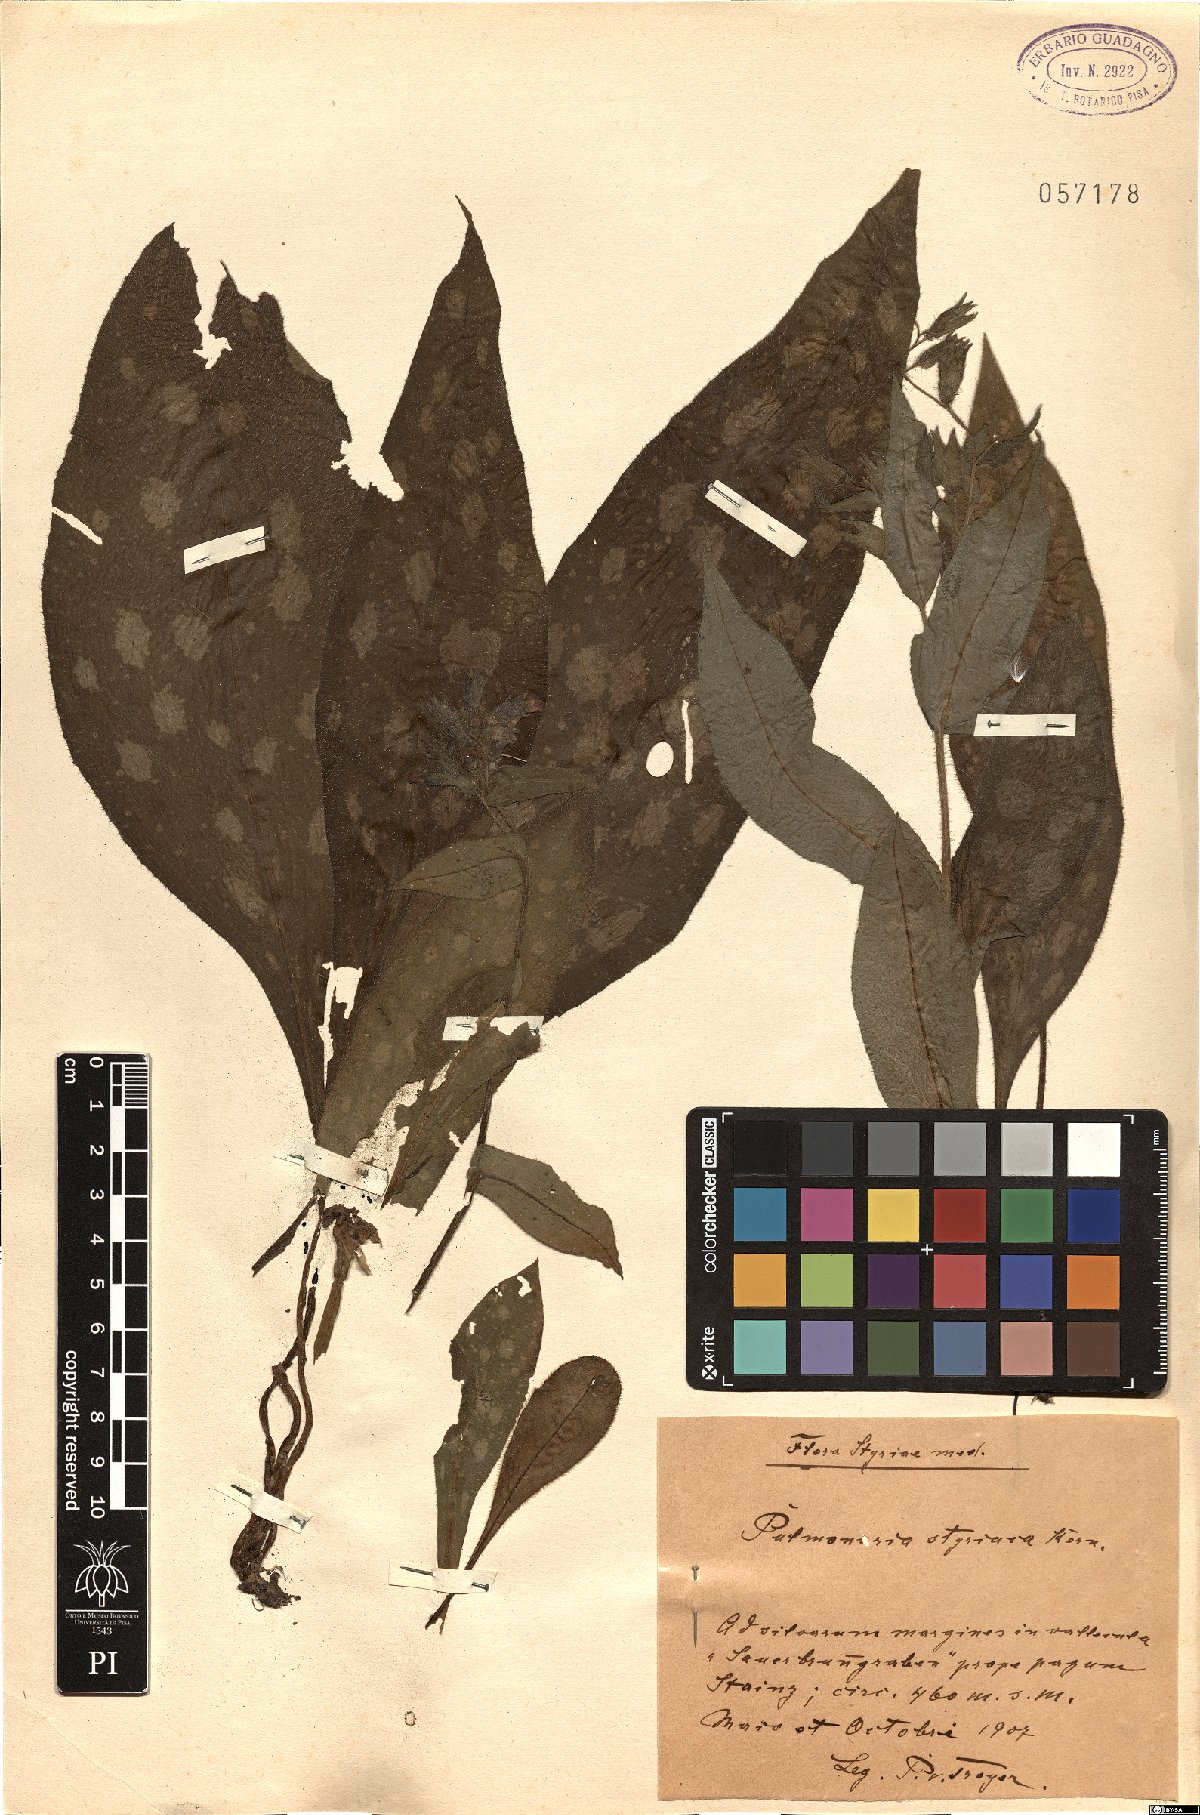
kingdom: Plantae
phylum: Tracheophyta
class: Magnoliopsida
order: Boraginales
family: Boraginaceae
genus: Pulmonaria
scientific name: Pulmonaria stiriaca
